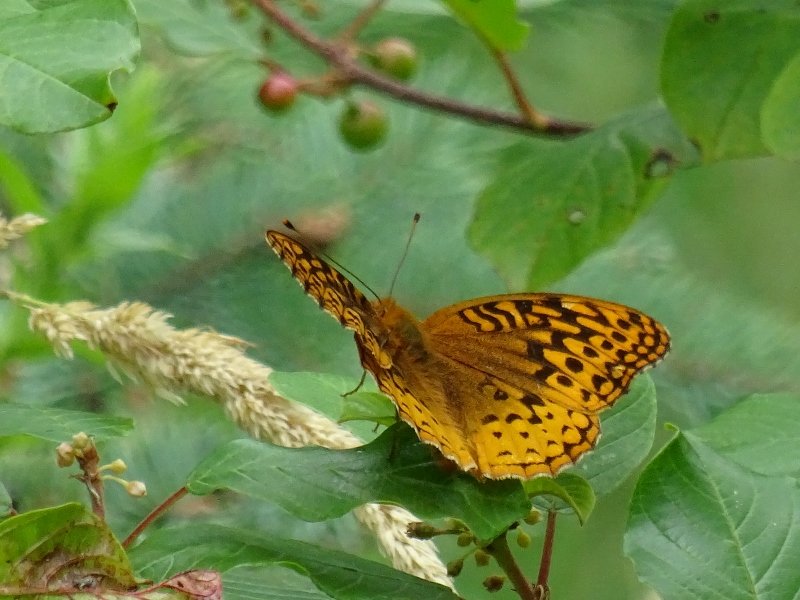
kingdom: Animalia
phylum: Arthropoda
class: Insecta
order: Lepidoptera
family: Nymphalidae
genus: Speyeria
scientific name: Speyeria cybele
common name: Great Spangled Fritillary
